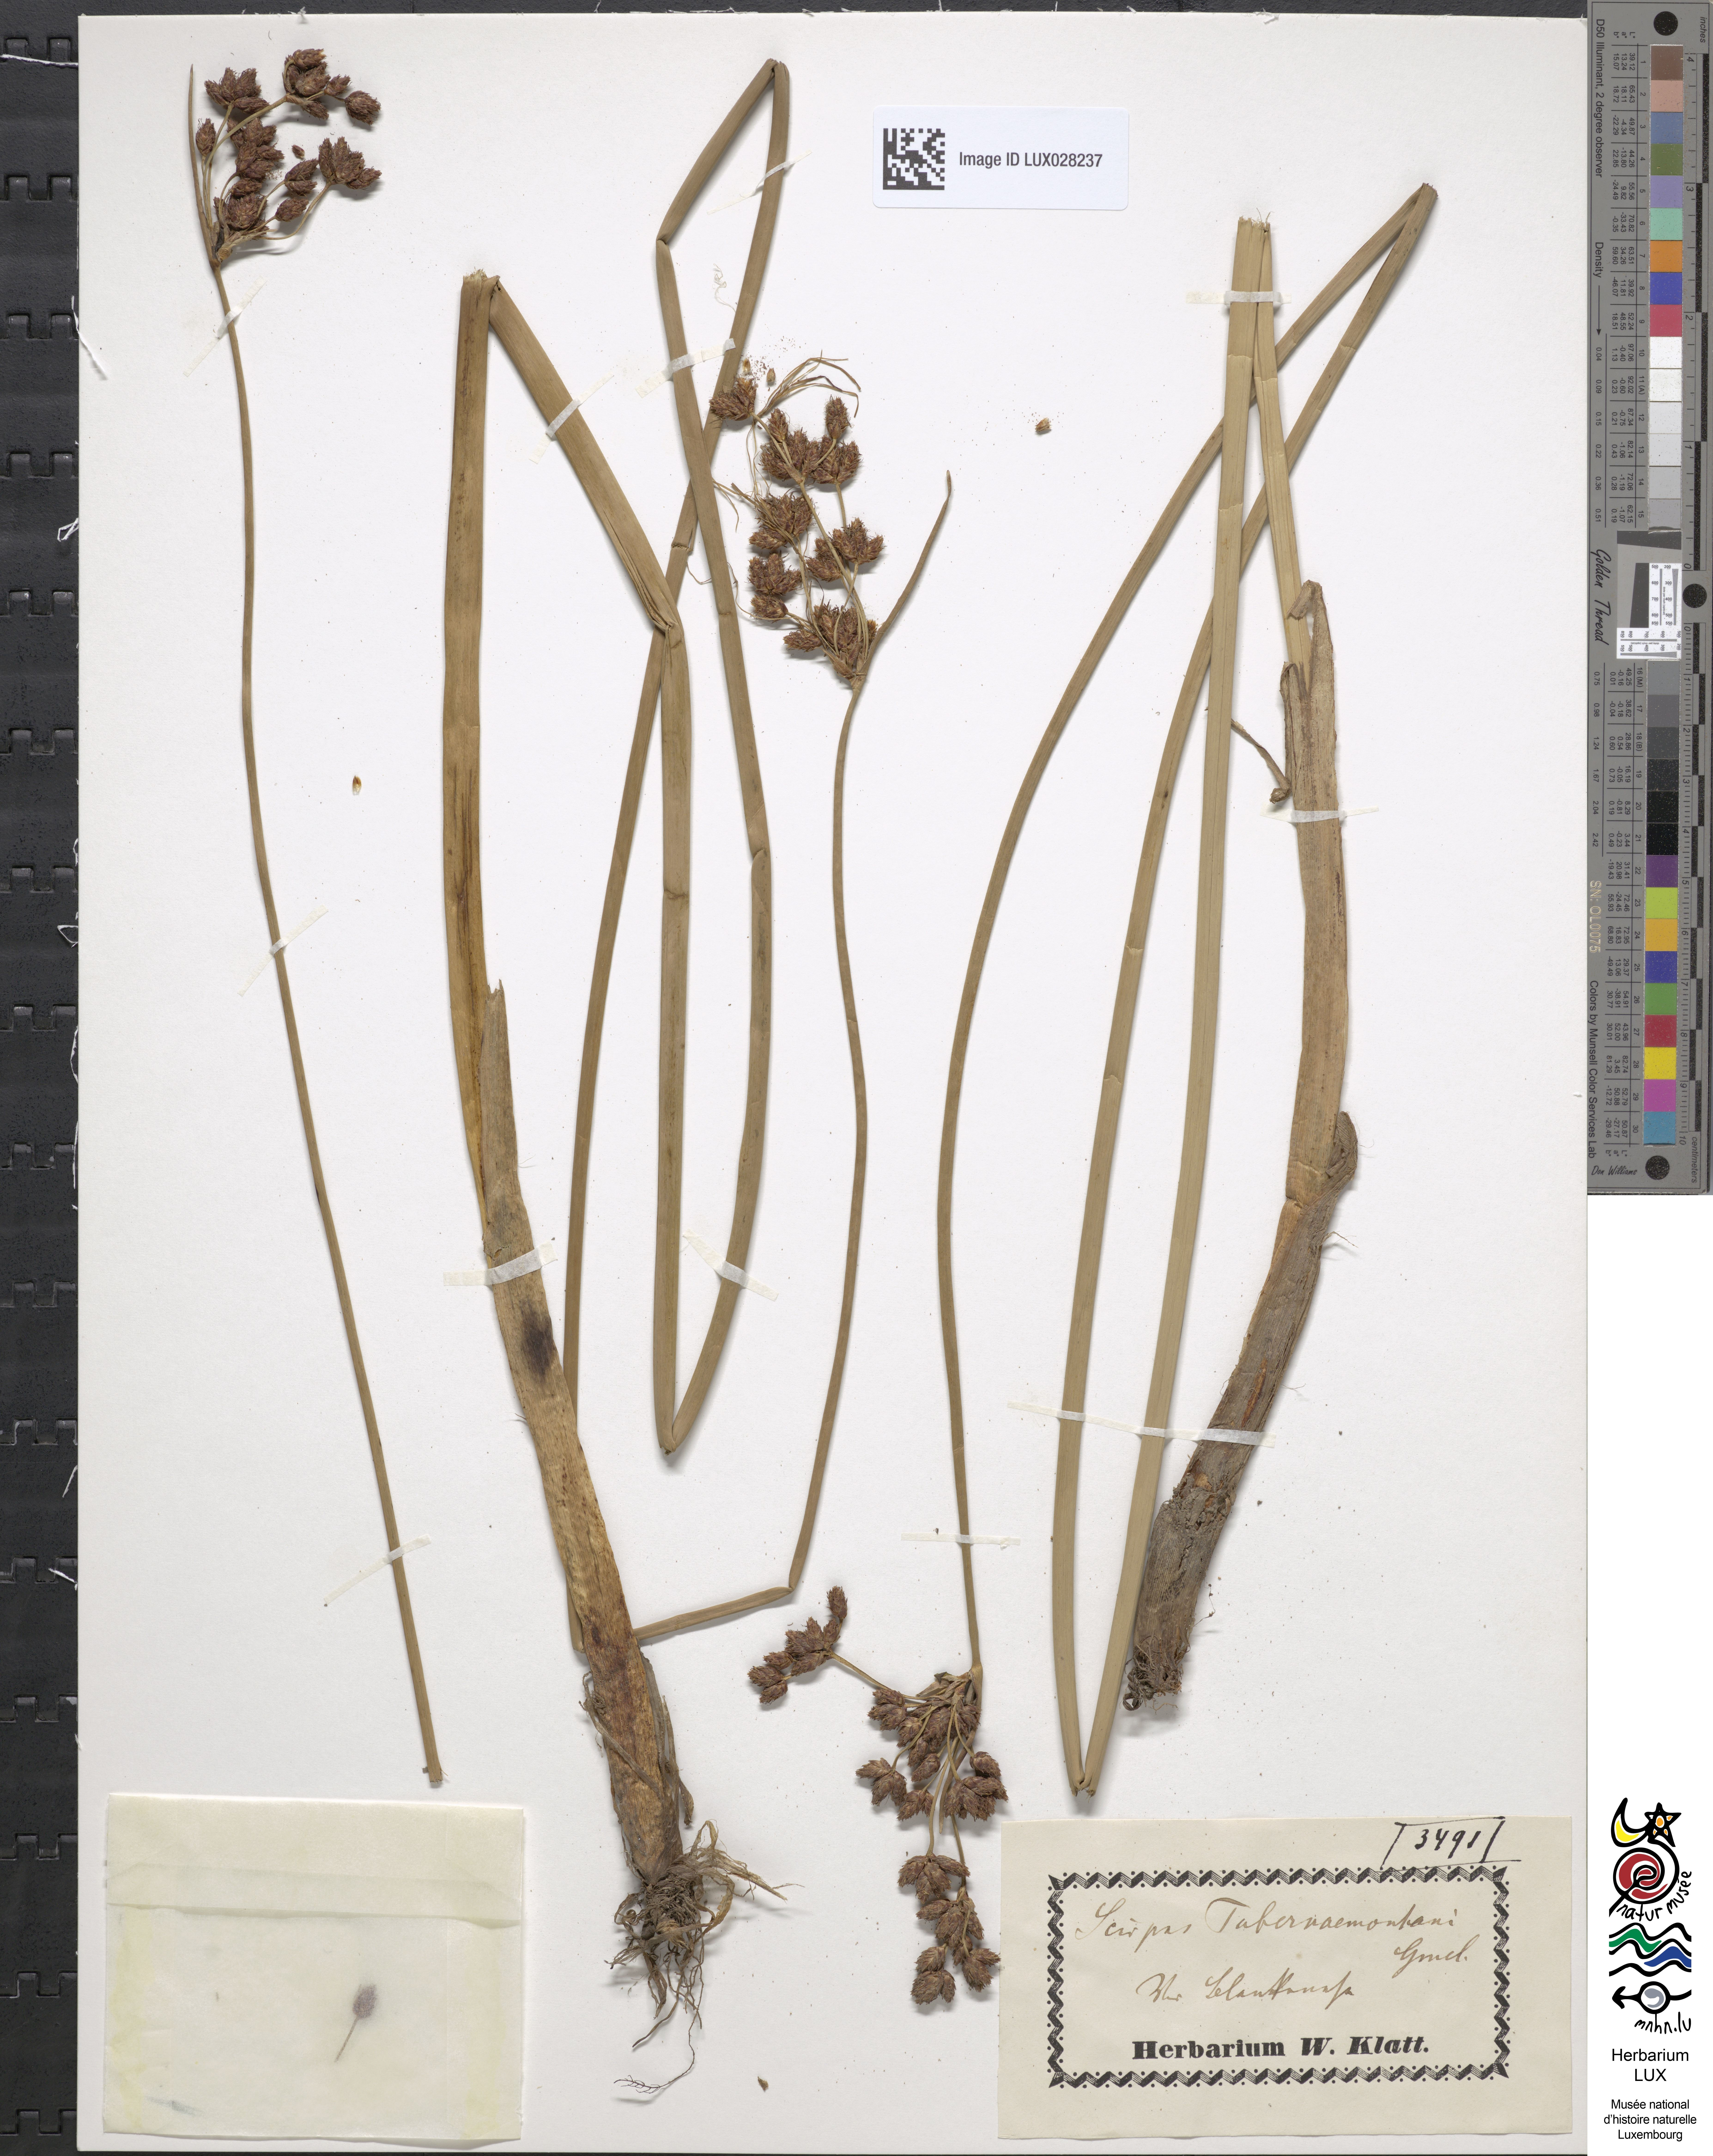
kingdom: Plantae
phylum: Tracheophyta
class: Liliopsida
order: Poales
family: Cyperaceae
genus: Schoenoplectus
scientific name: Schoenoplectus tabernaemontani
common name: Grey club-rush
